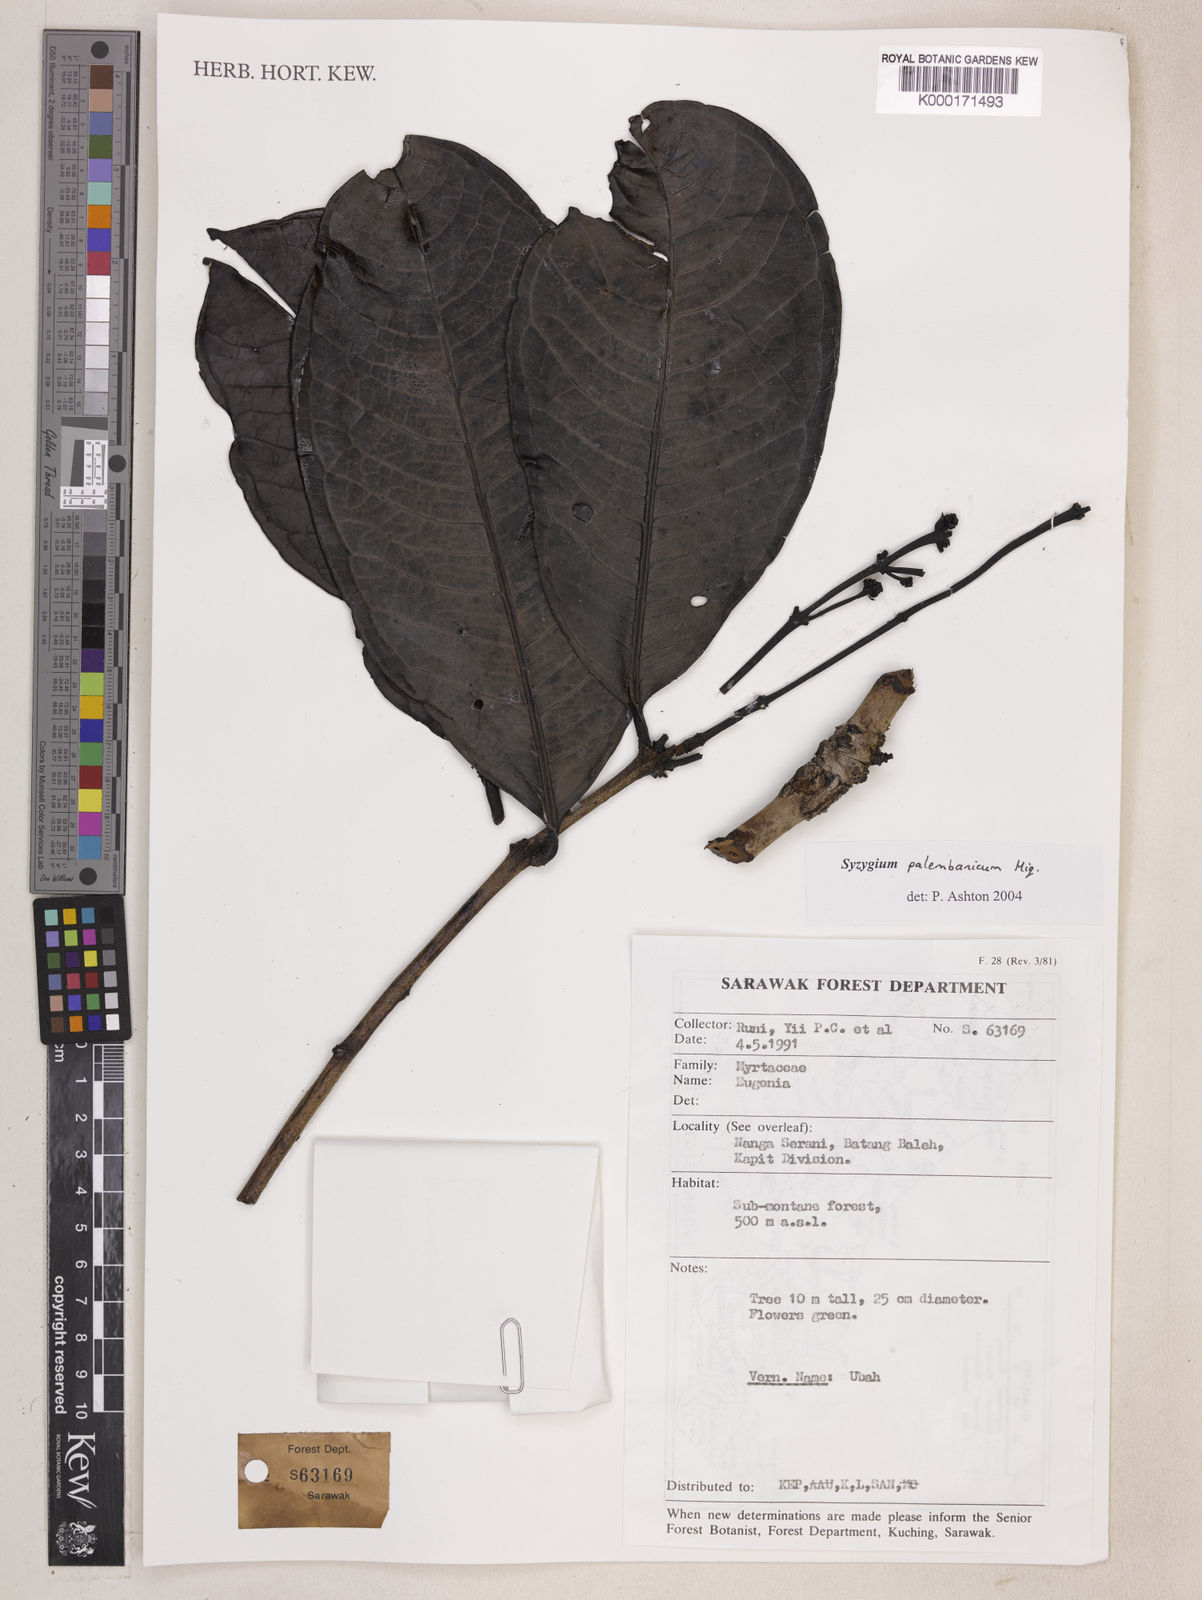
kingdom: Plantae
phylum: Tracheophyta
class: Magnoliopsida
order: Myrtales
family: Myrtaceae
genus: Syzygium
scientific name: Syzygium rosulentum
